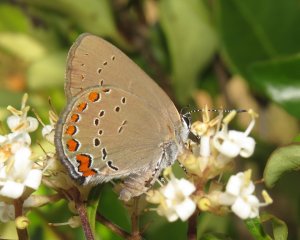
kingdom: Animalia
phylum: Arthropoda
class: Insecta
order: Lepidoptera
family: Lycaenidae
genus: Harkenclenus
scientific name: Harkenclenus titus
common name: Coral Hairstreak
